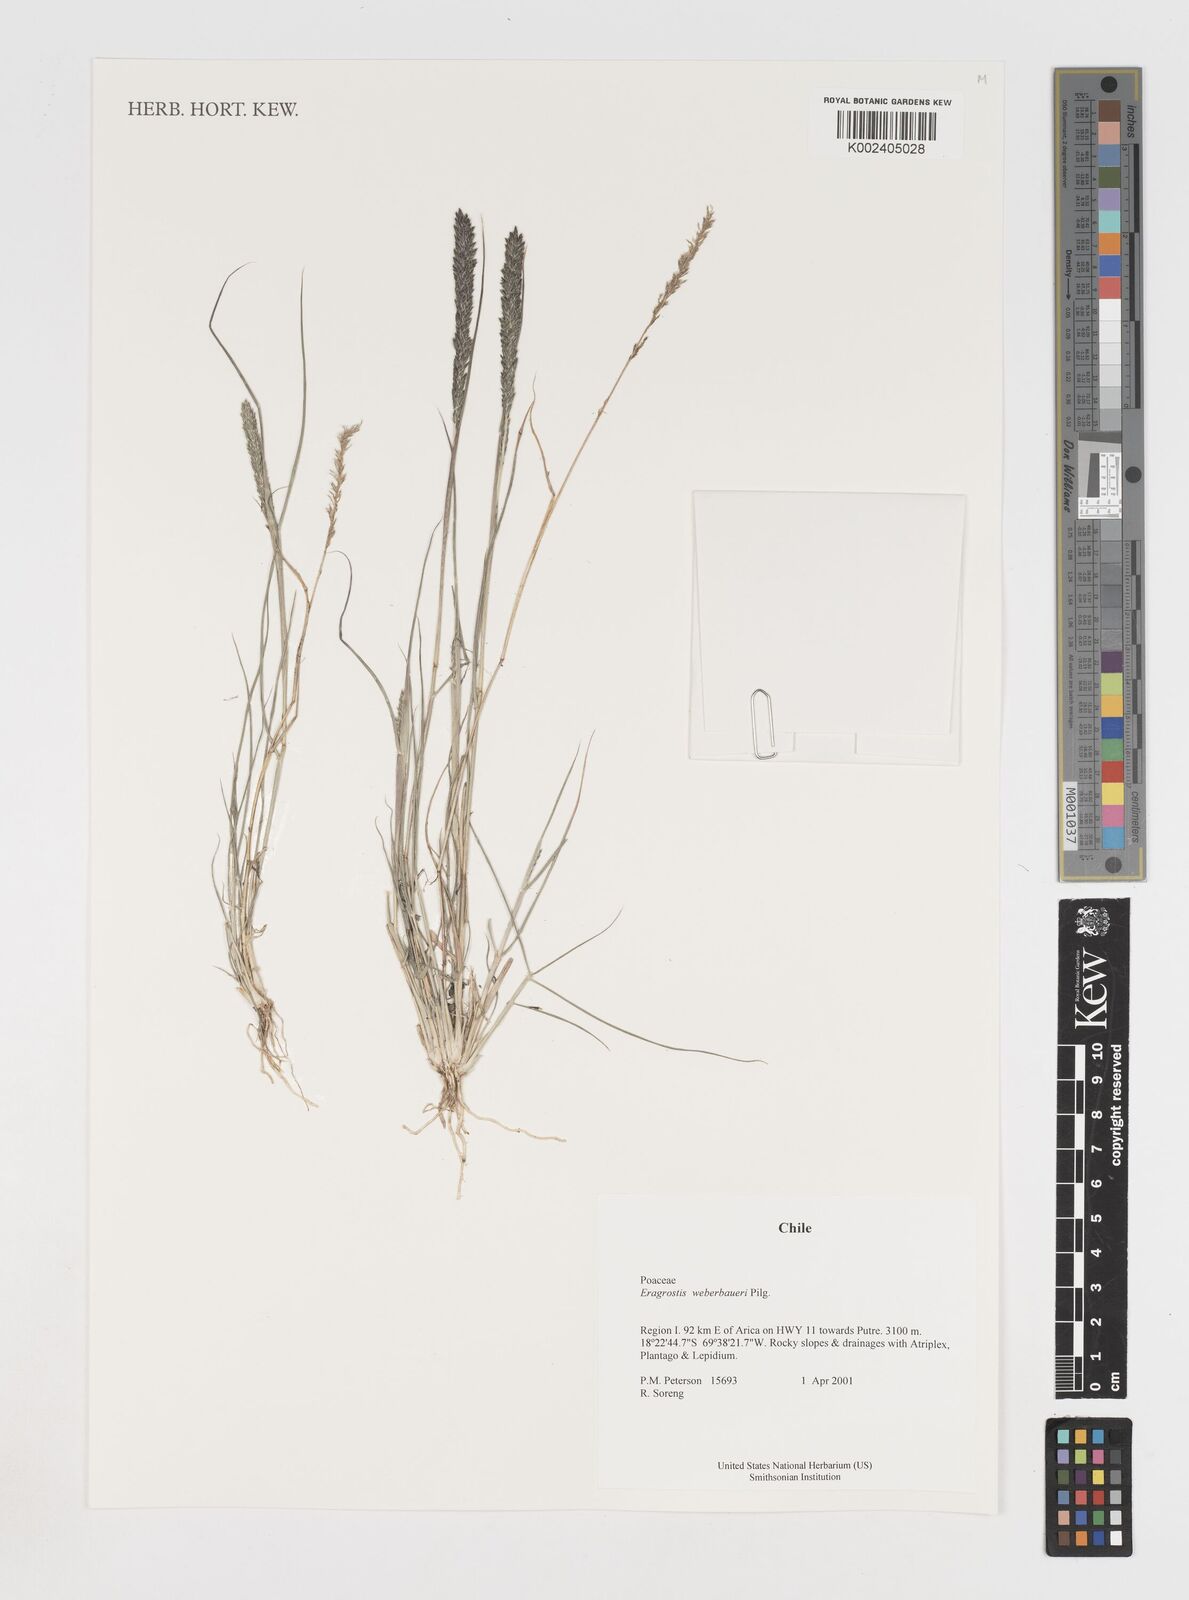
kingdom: Plantae
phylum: Tracheophyta
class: Liliopsida
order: Poales
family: Poaceae
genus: Eragrostis
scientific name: Eragrostis weberbaueri
